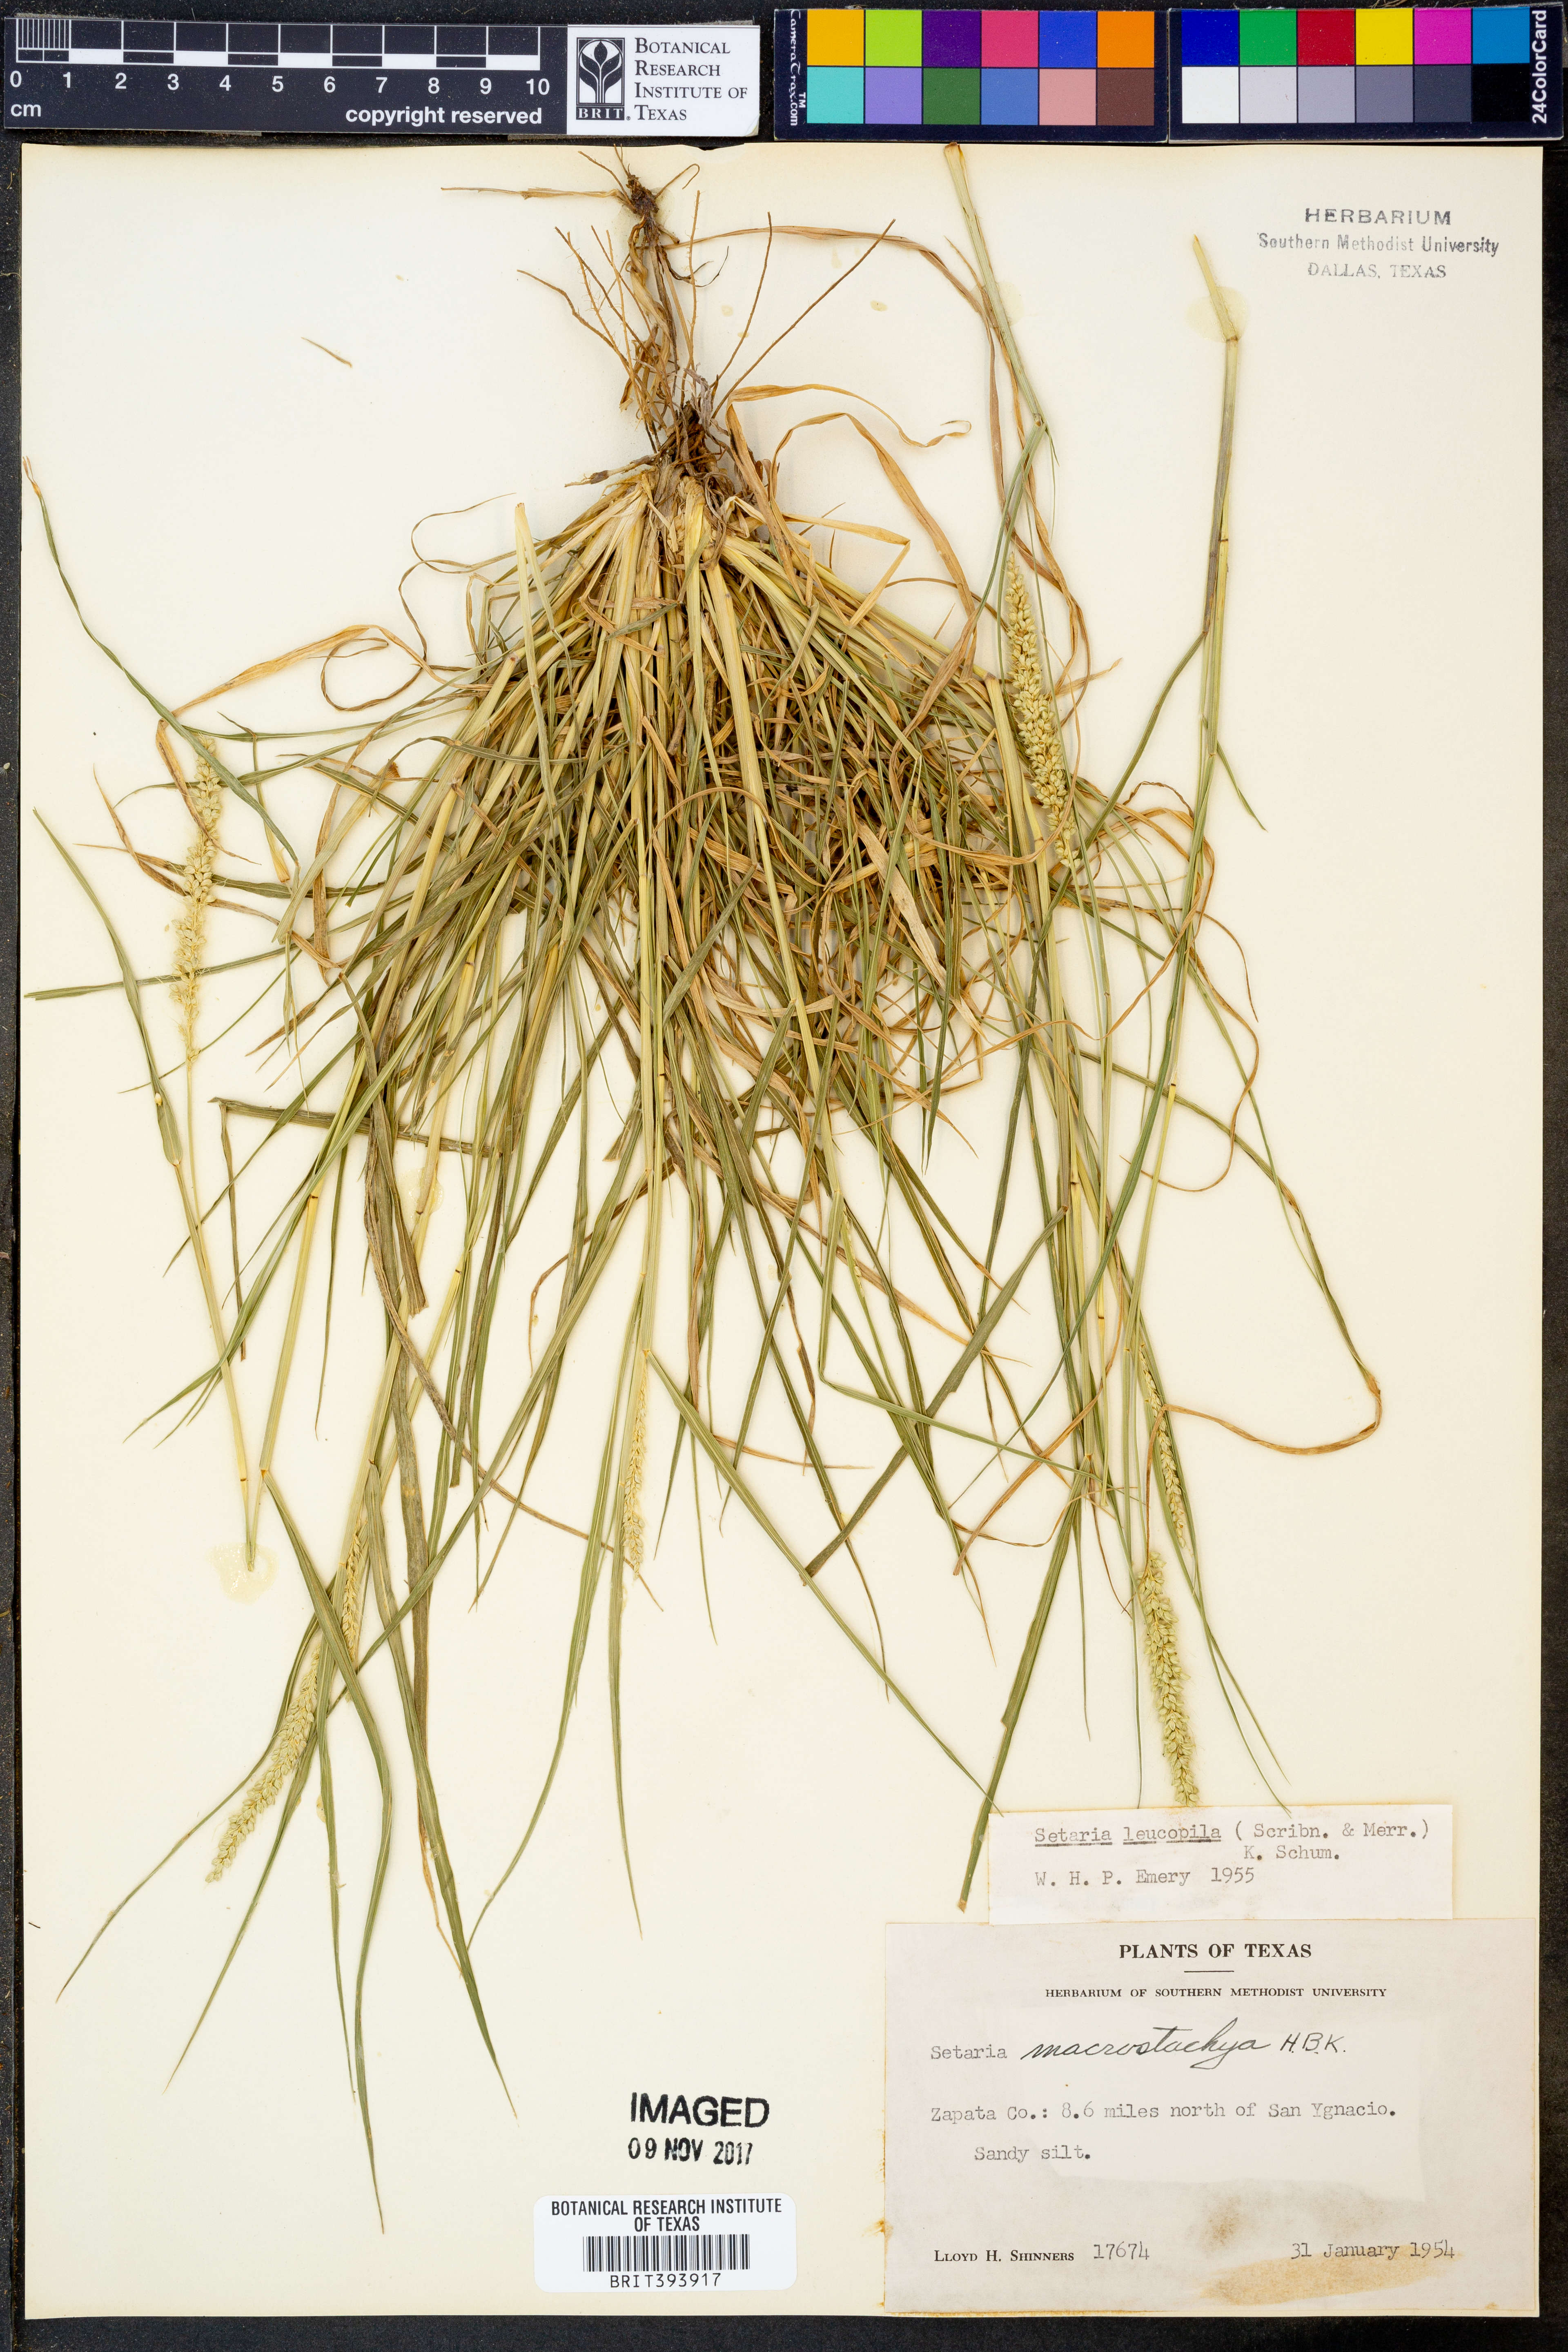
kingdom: Plantae
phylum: Tracheophyta
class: Liliopsida
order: Poales
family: Poaceae
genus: Setaria
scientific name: Setaria leucopila
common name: Plains bristle grass
